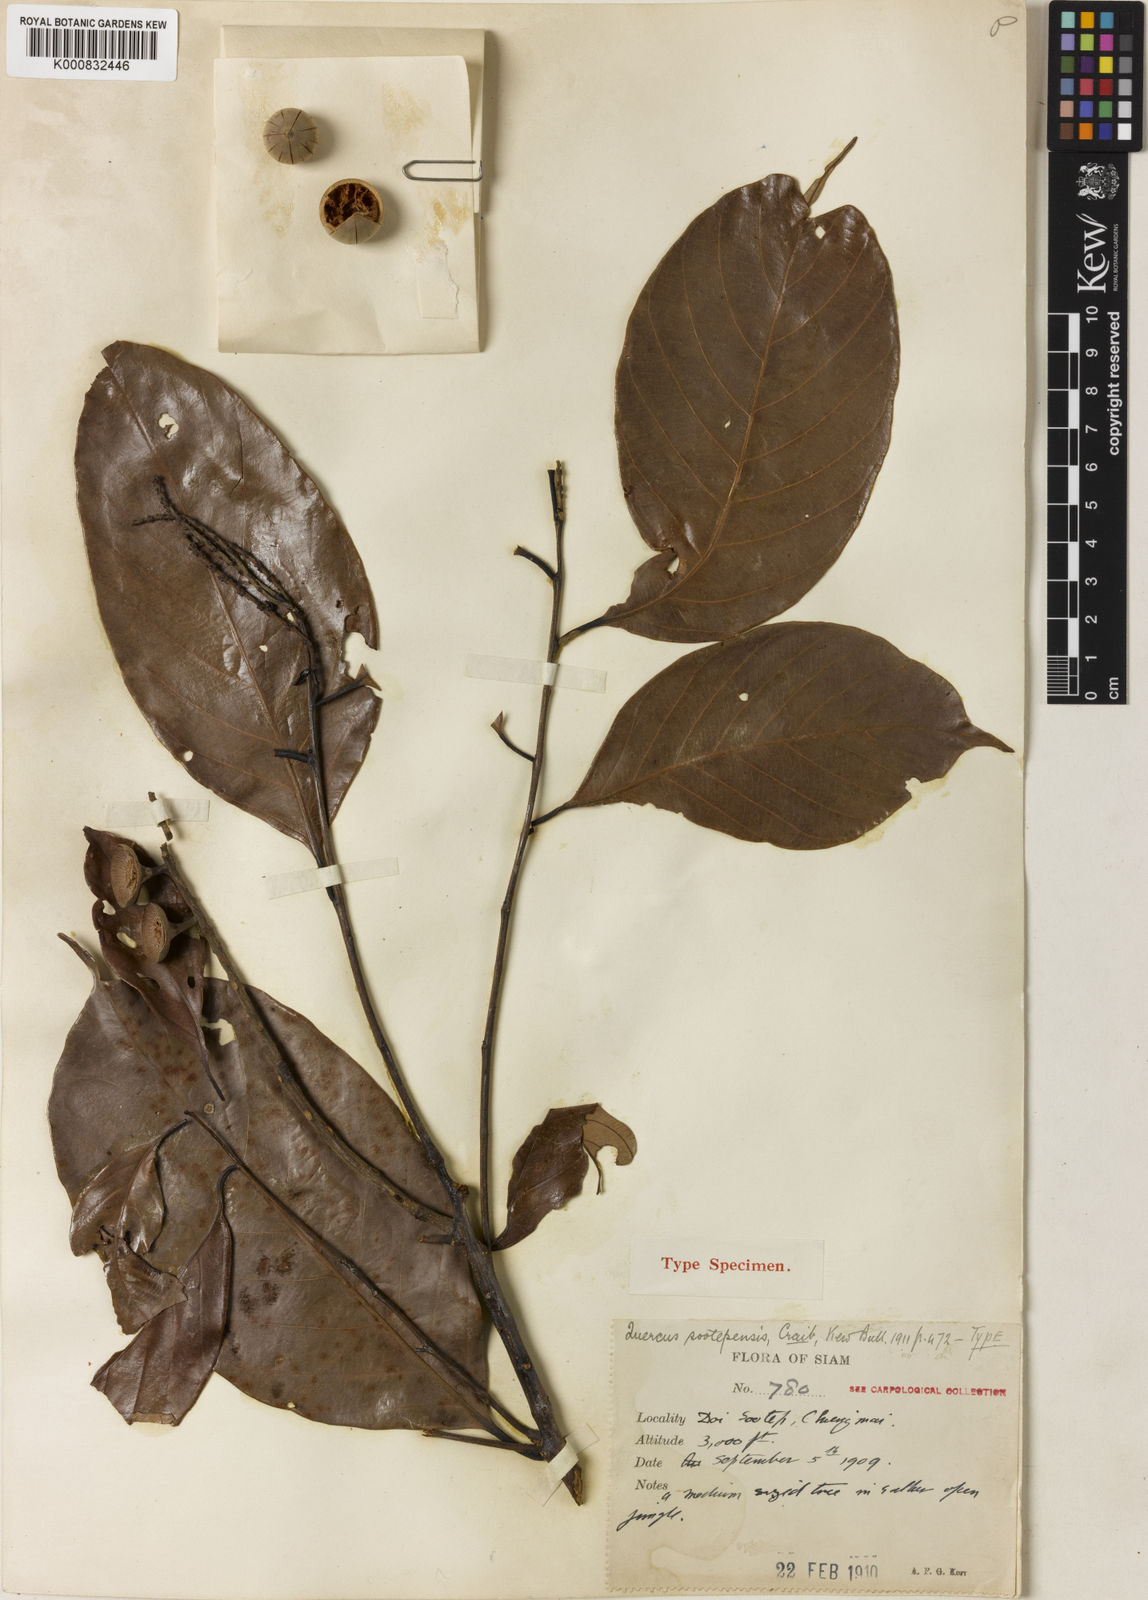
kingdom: Plantae
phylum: Tracheophyta
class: Magnoliopsida
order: Fagales
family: Fagaceae
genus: Lithocarpus
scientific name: Lithocarpus sootepensis
